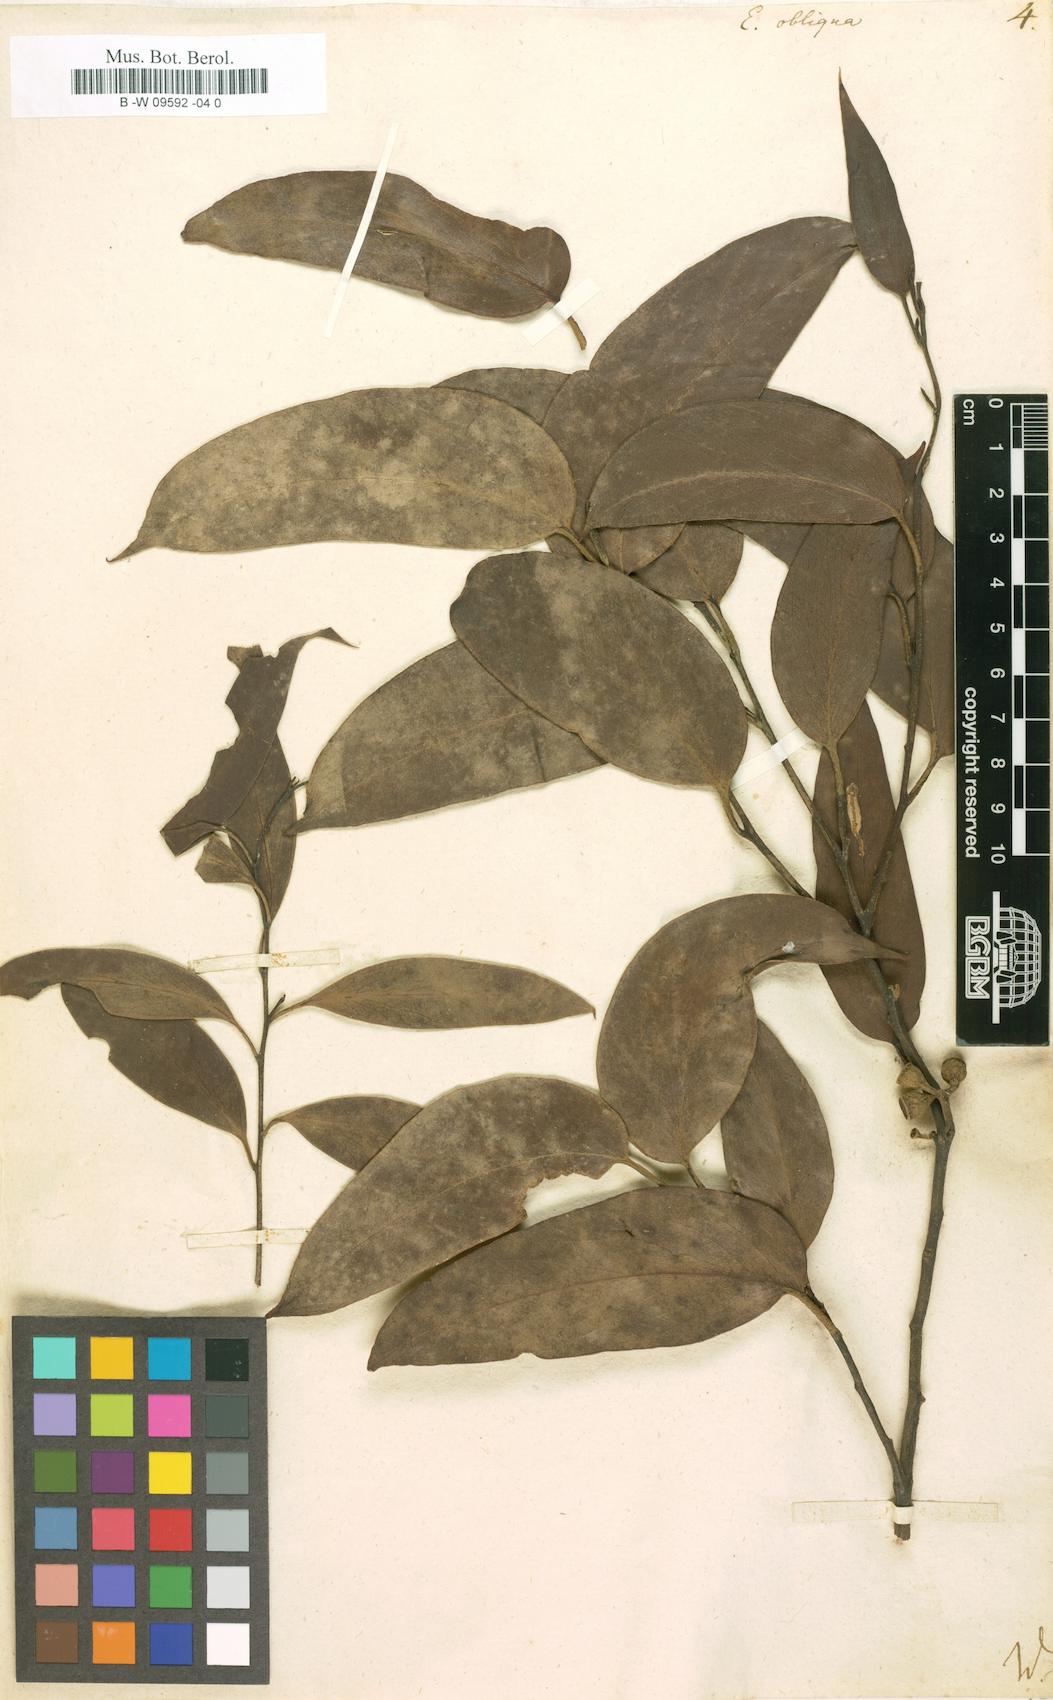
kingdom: Plantae
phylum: Tracheophyta
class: Magnoliopsida
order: Myrtales
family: Myrtaceae
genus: Eucalyptus
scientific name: Eucalyptus obliqua
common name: Messmate stringybark
